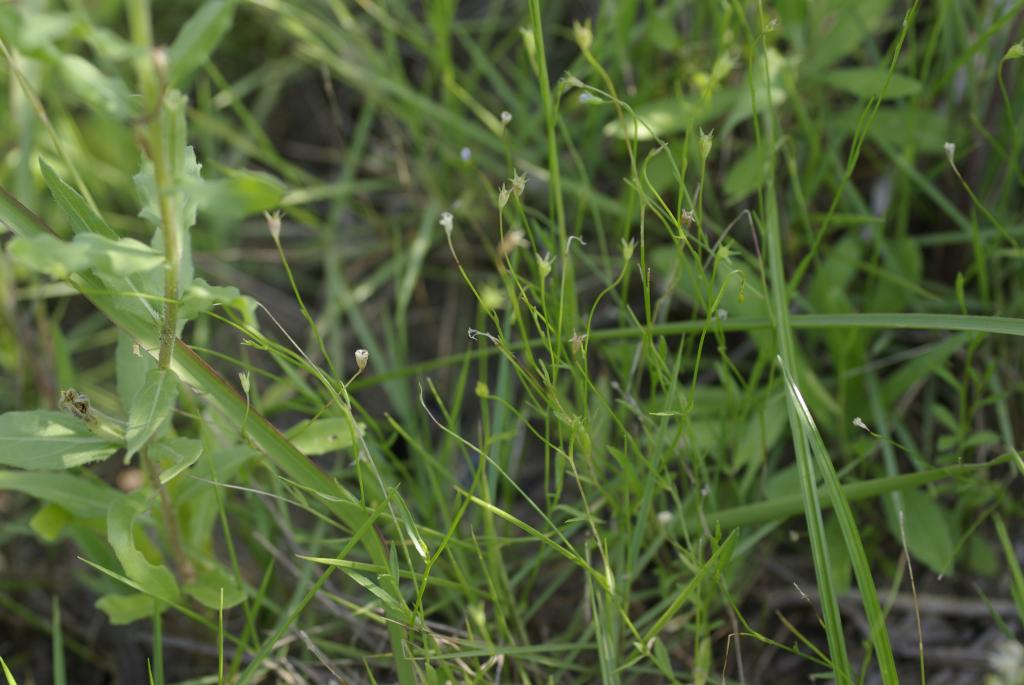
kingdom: Plantae
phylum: Tracheophyta
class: Magnoliopsida
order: Asterales
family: Campanulaceae
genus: Wahlenbergia
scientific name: Wahlenbergia marginata
